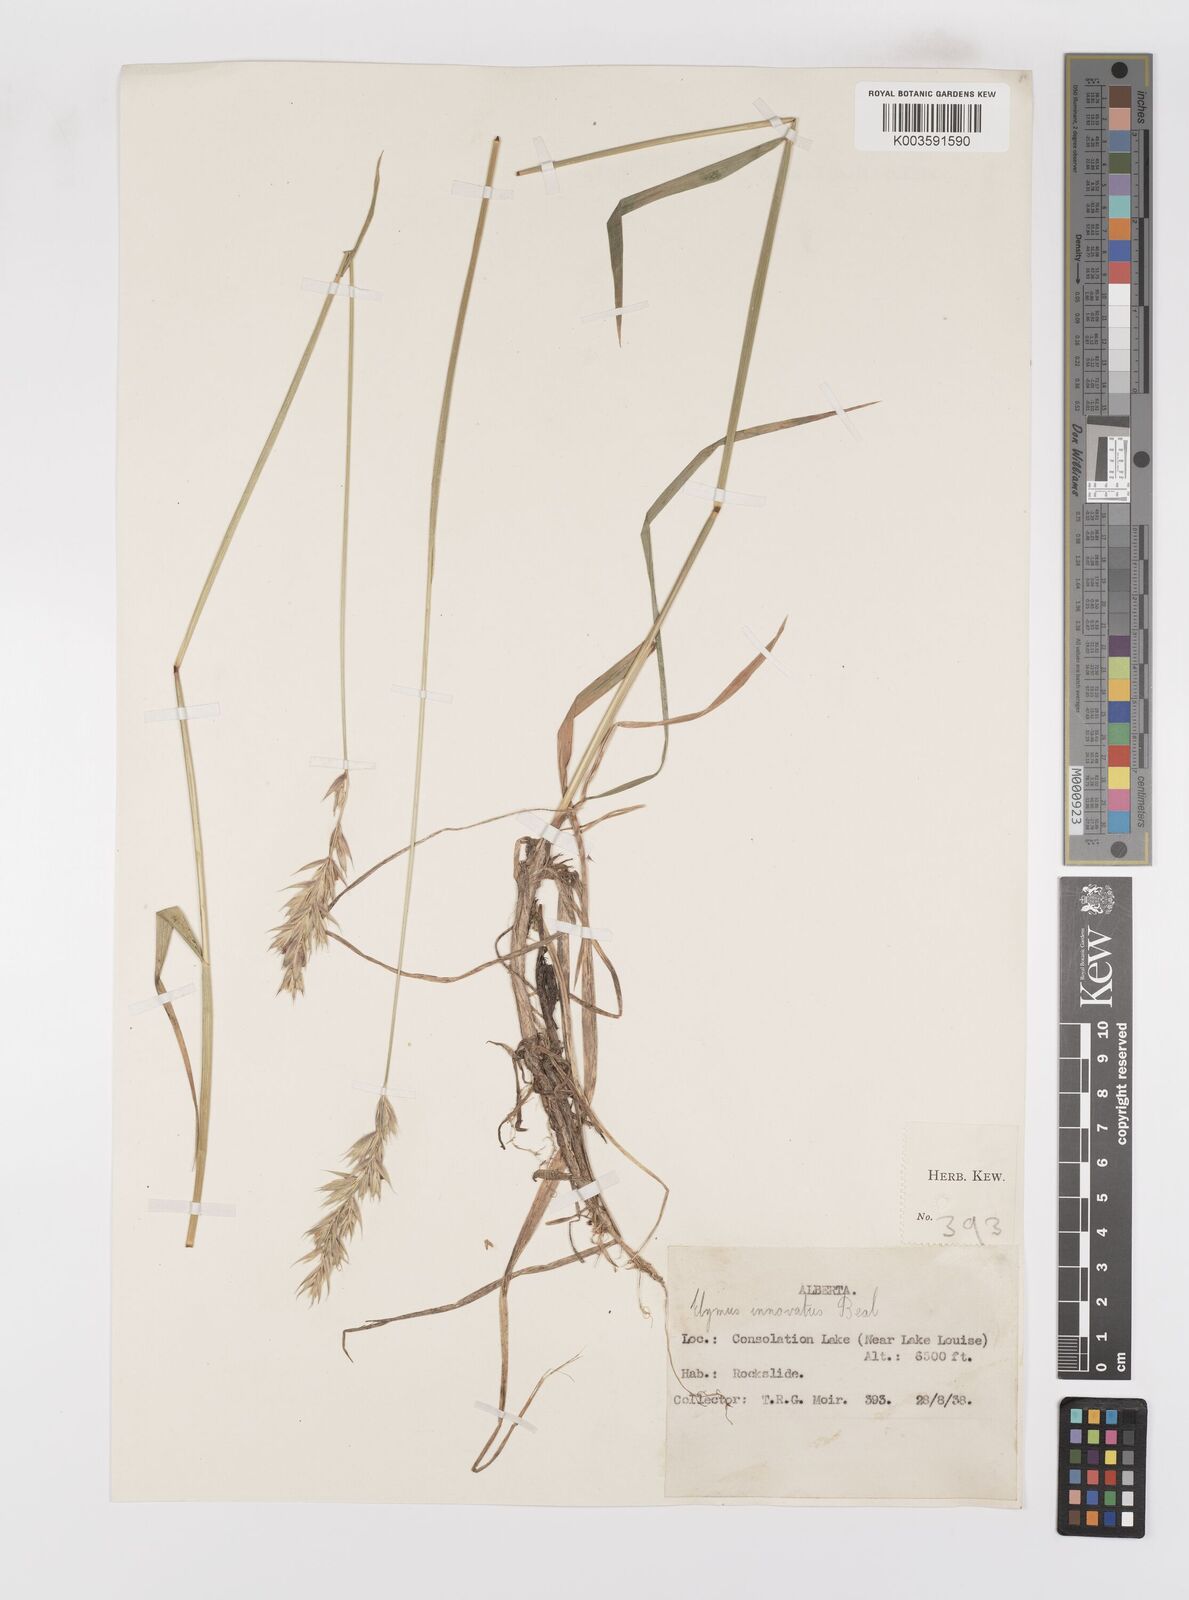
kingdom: Plantae
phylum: Tracheophyta
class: Liliopsida
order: Poales
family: Poaceae
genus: Leymus
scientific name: Leymus innovatus
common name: Boreal wild rye
